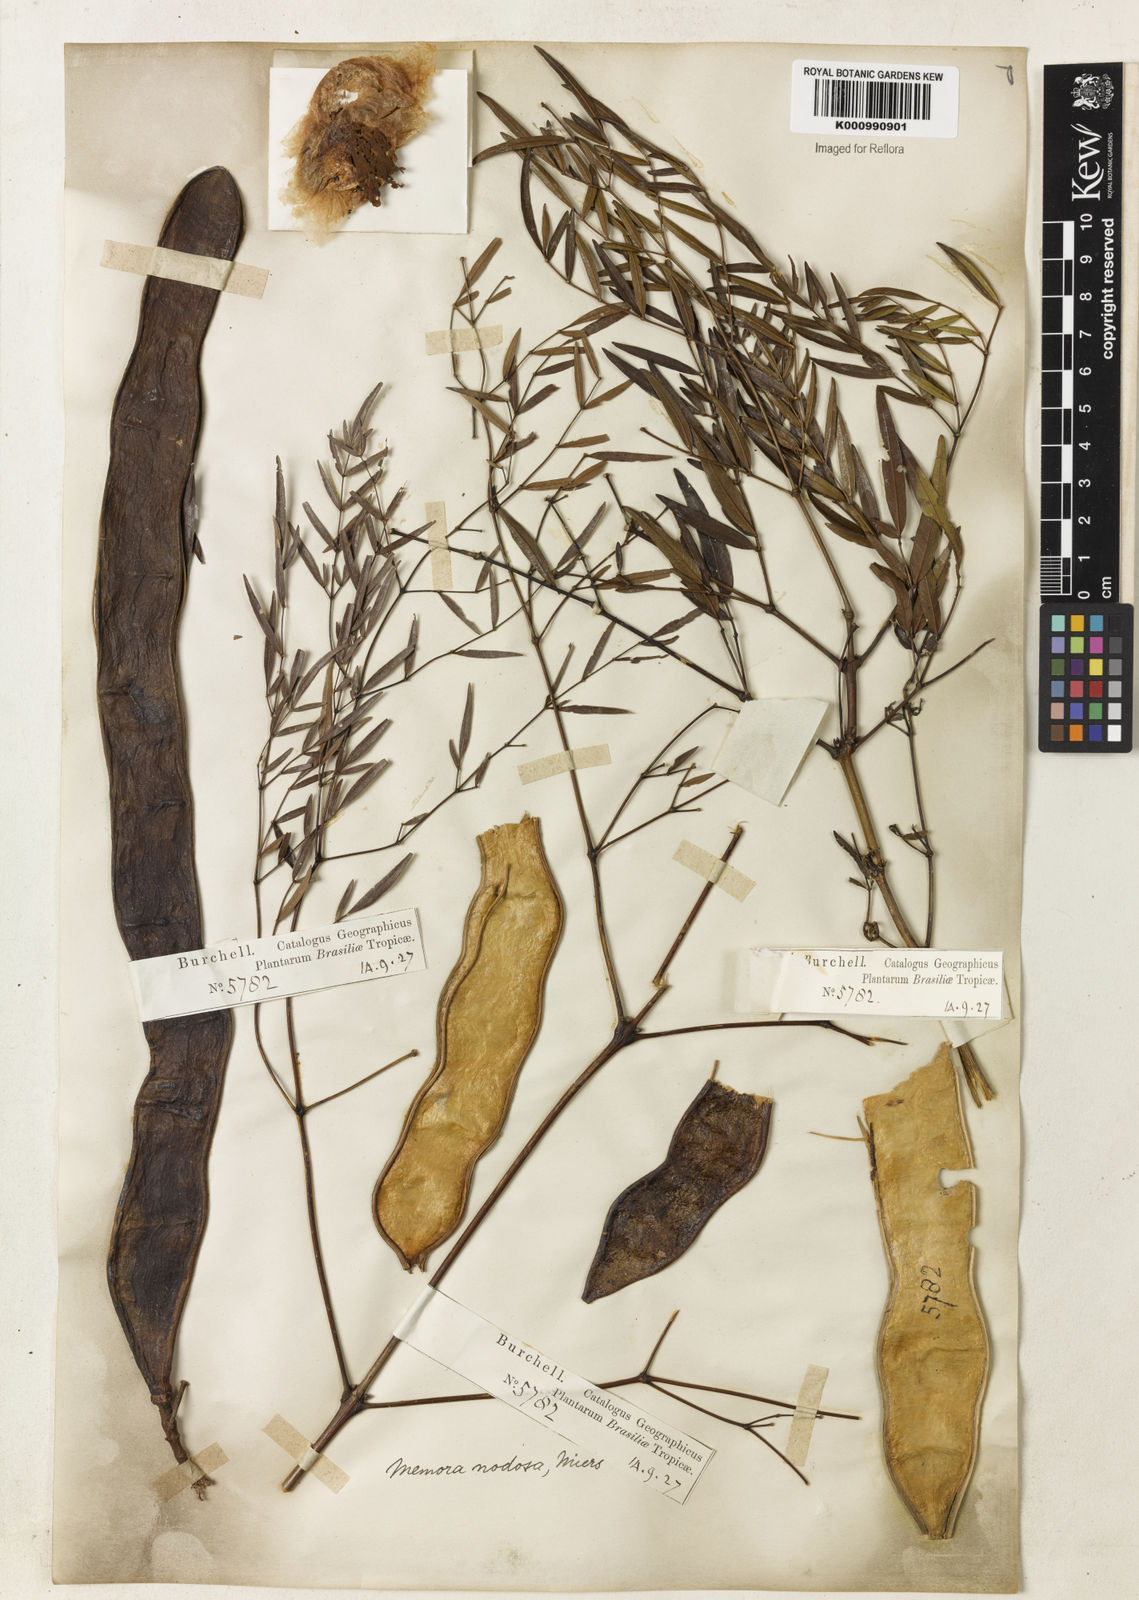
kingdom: Plantae
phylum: Tracheophyta
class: Magnoliopsida
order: Lamiales
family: Bignoniaceae
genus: Adenocalymma
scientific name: Adenocalymma nodosum
